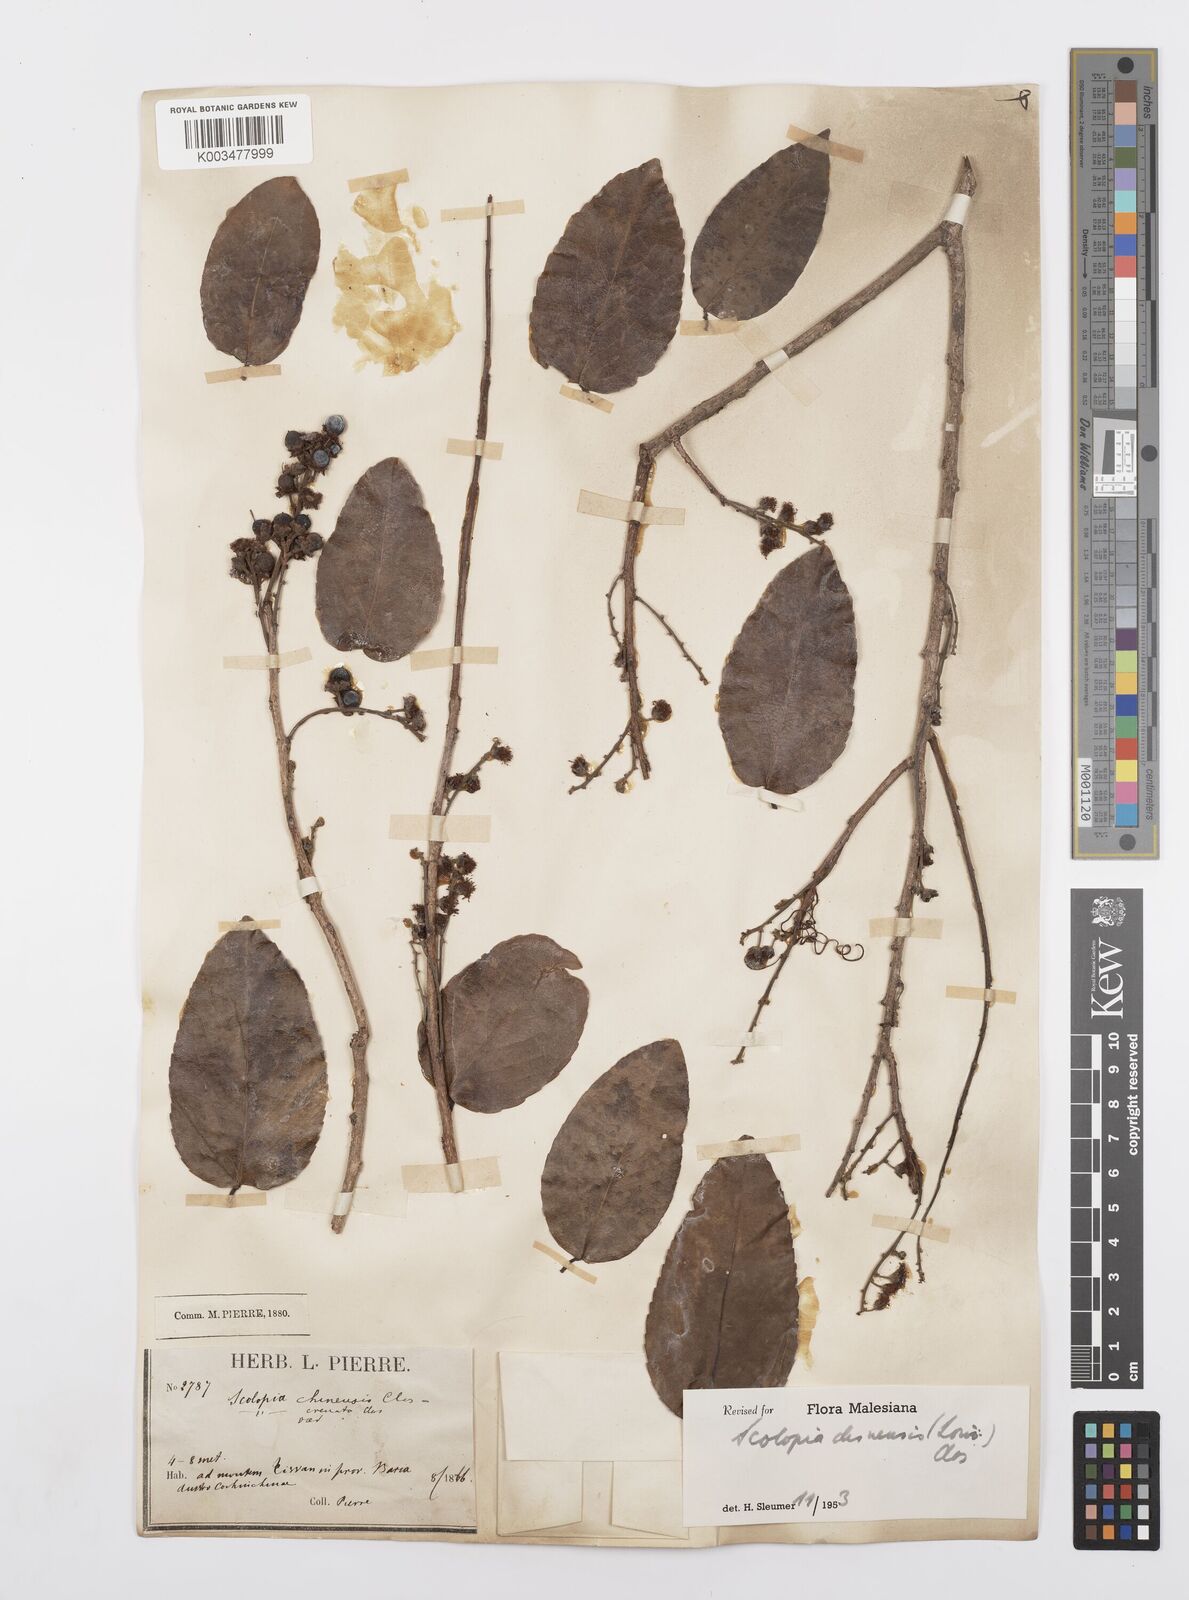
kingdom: Plantae
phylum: Tracheophyta
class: Magnoliopsida
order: Malpighiales
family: Salicaceae
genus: Scolopia
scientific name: Scolopia chinensis
